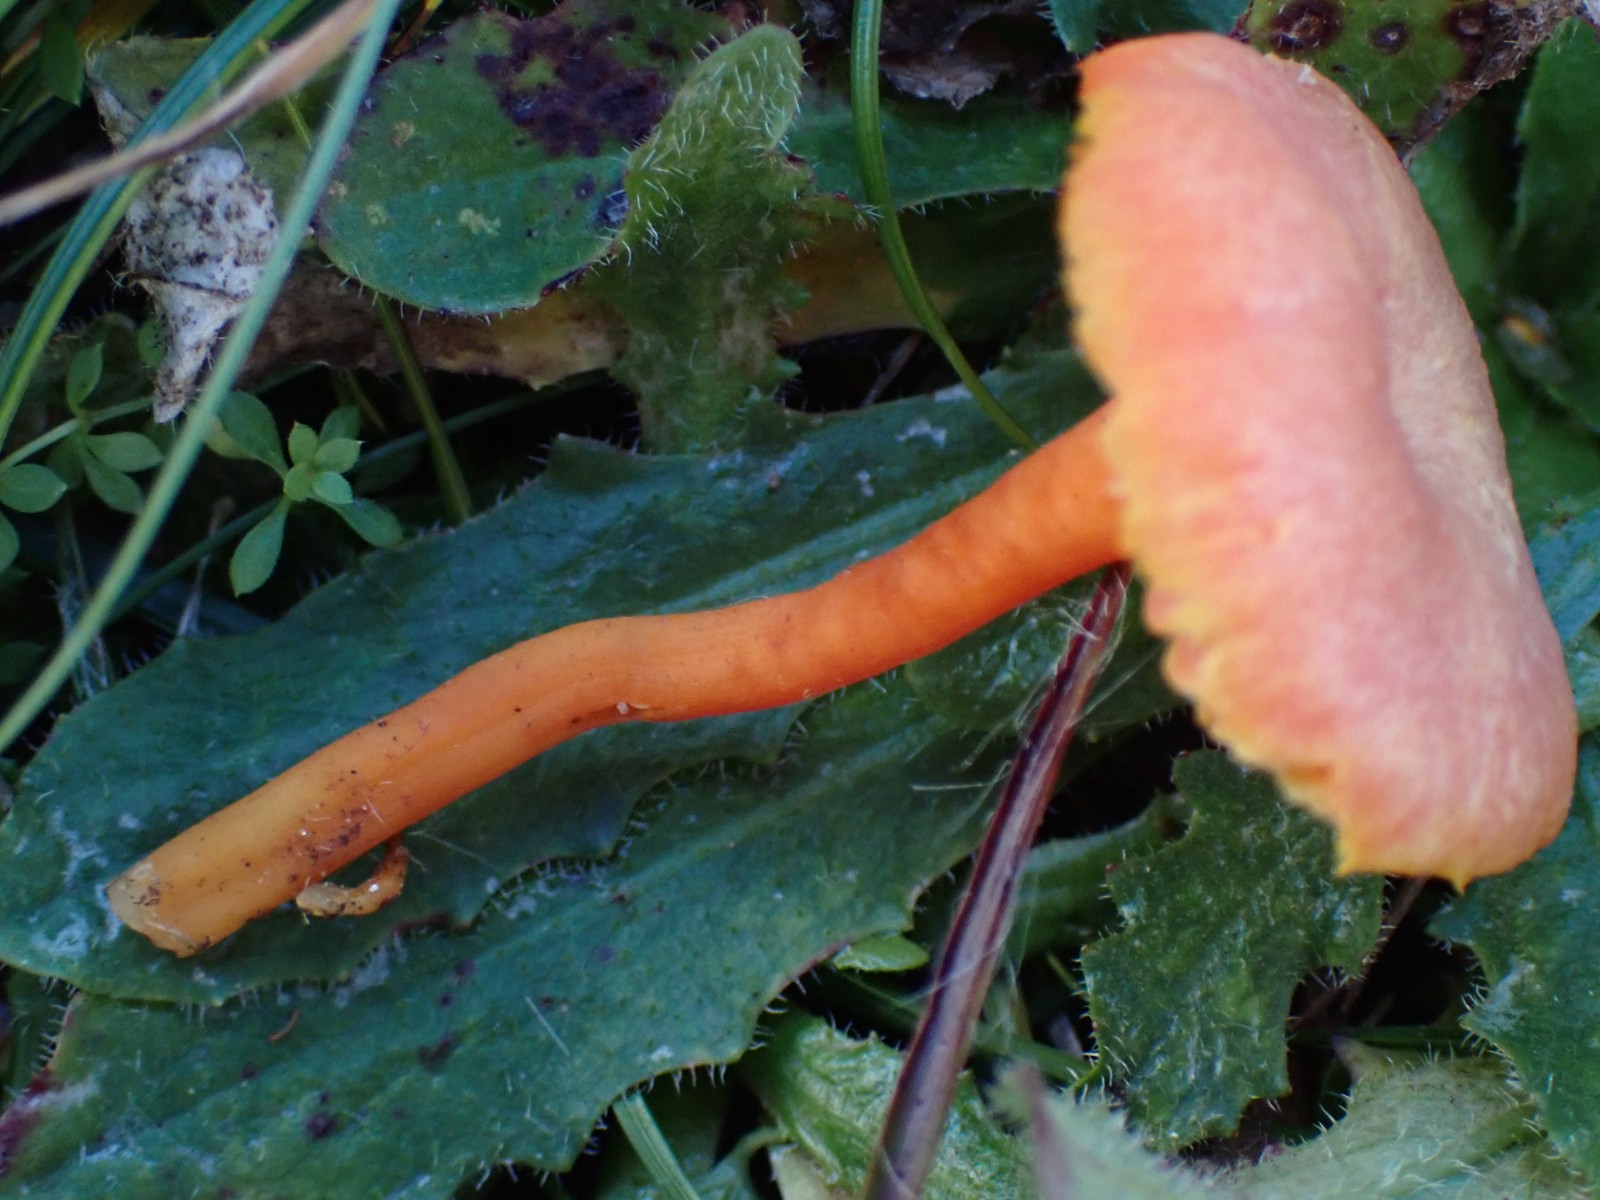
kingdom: Fungi
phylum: Basidiomycota
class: Agaricomycetes
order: Agaricales
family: Hygrophoraceae
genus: Hygrocybe
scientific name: Hygrocybe miniata
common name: mønje-vokshat
